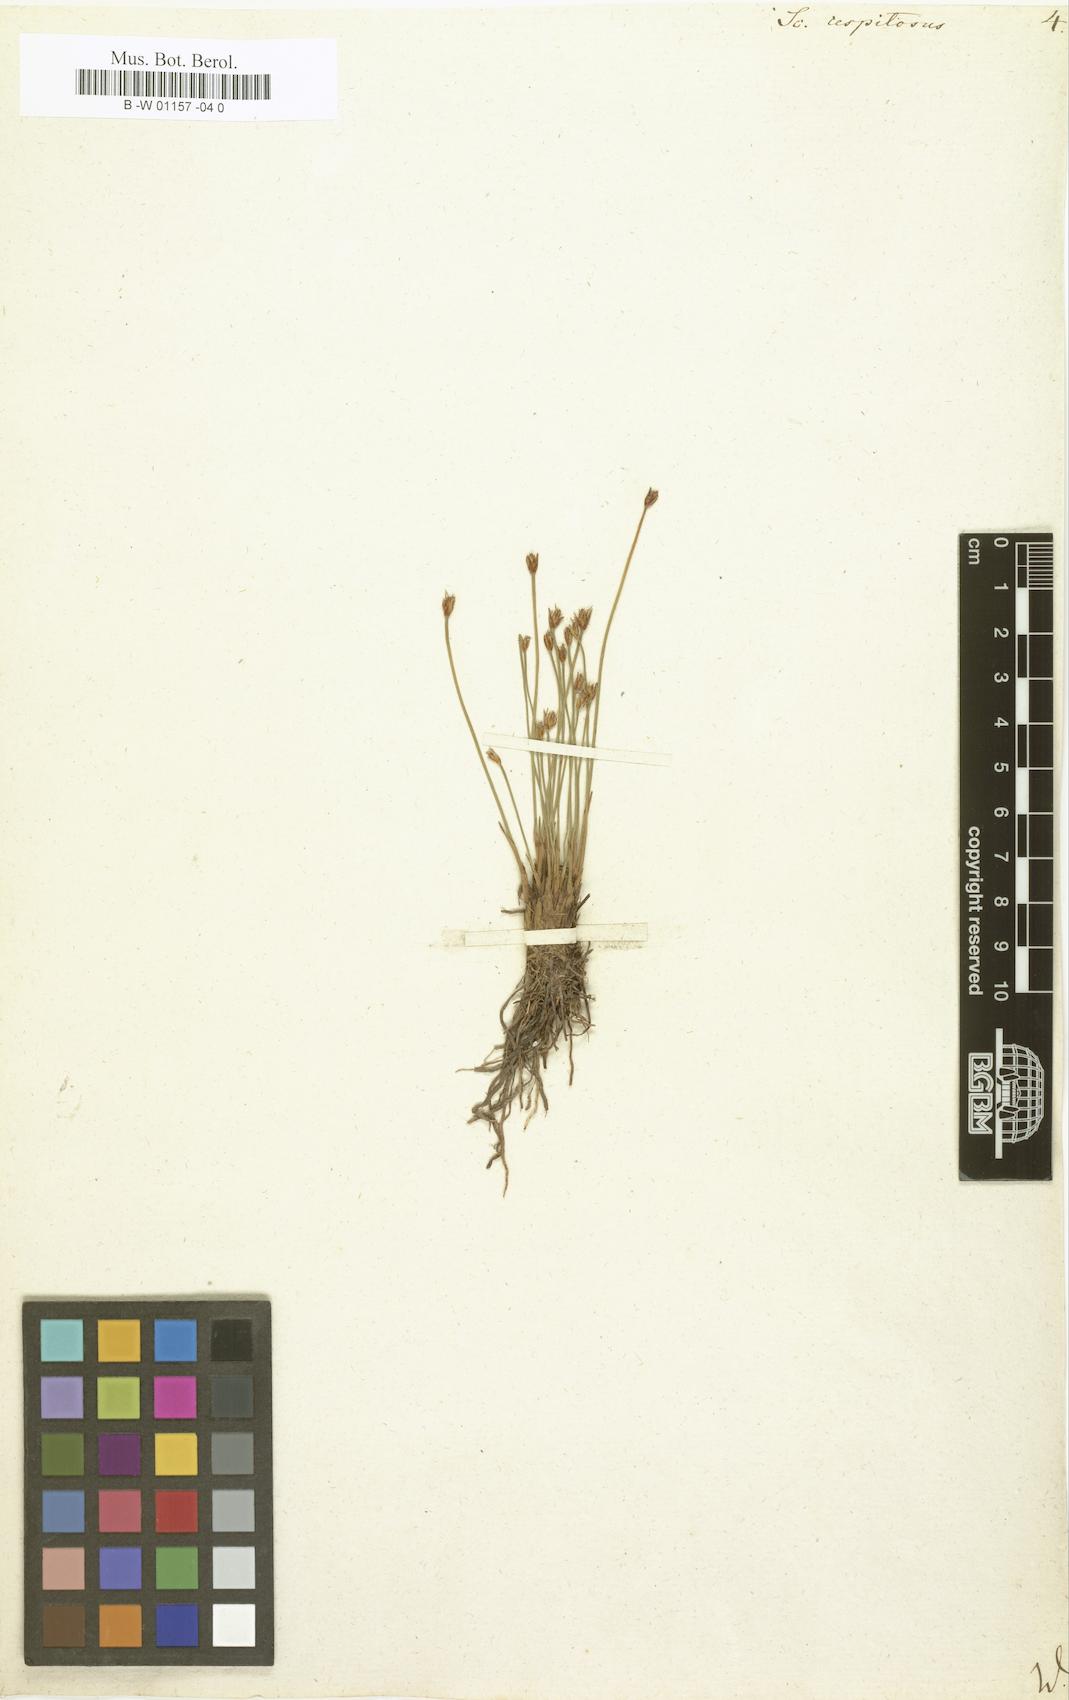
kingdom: Plantae
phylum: Tracheophyta
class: Liliopsida
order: Poales
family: Cyperaceae
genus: Trichophorum
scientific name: Trichophorum cespitosum
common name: Cespitose bulrush
